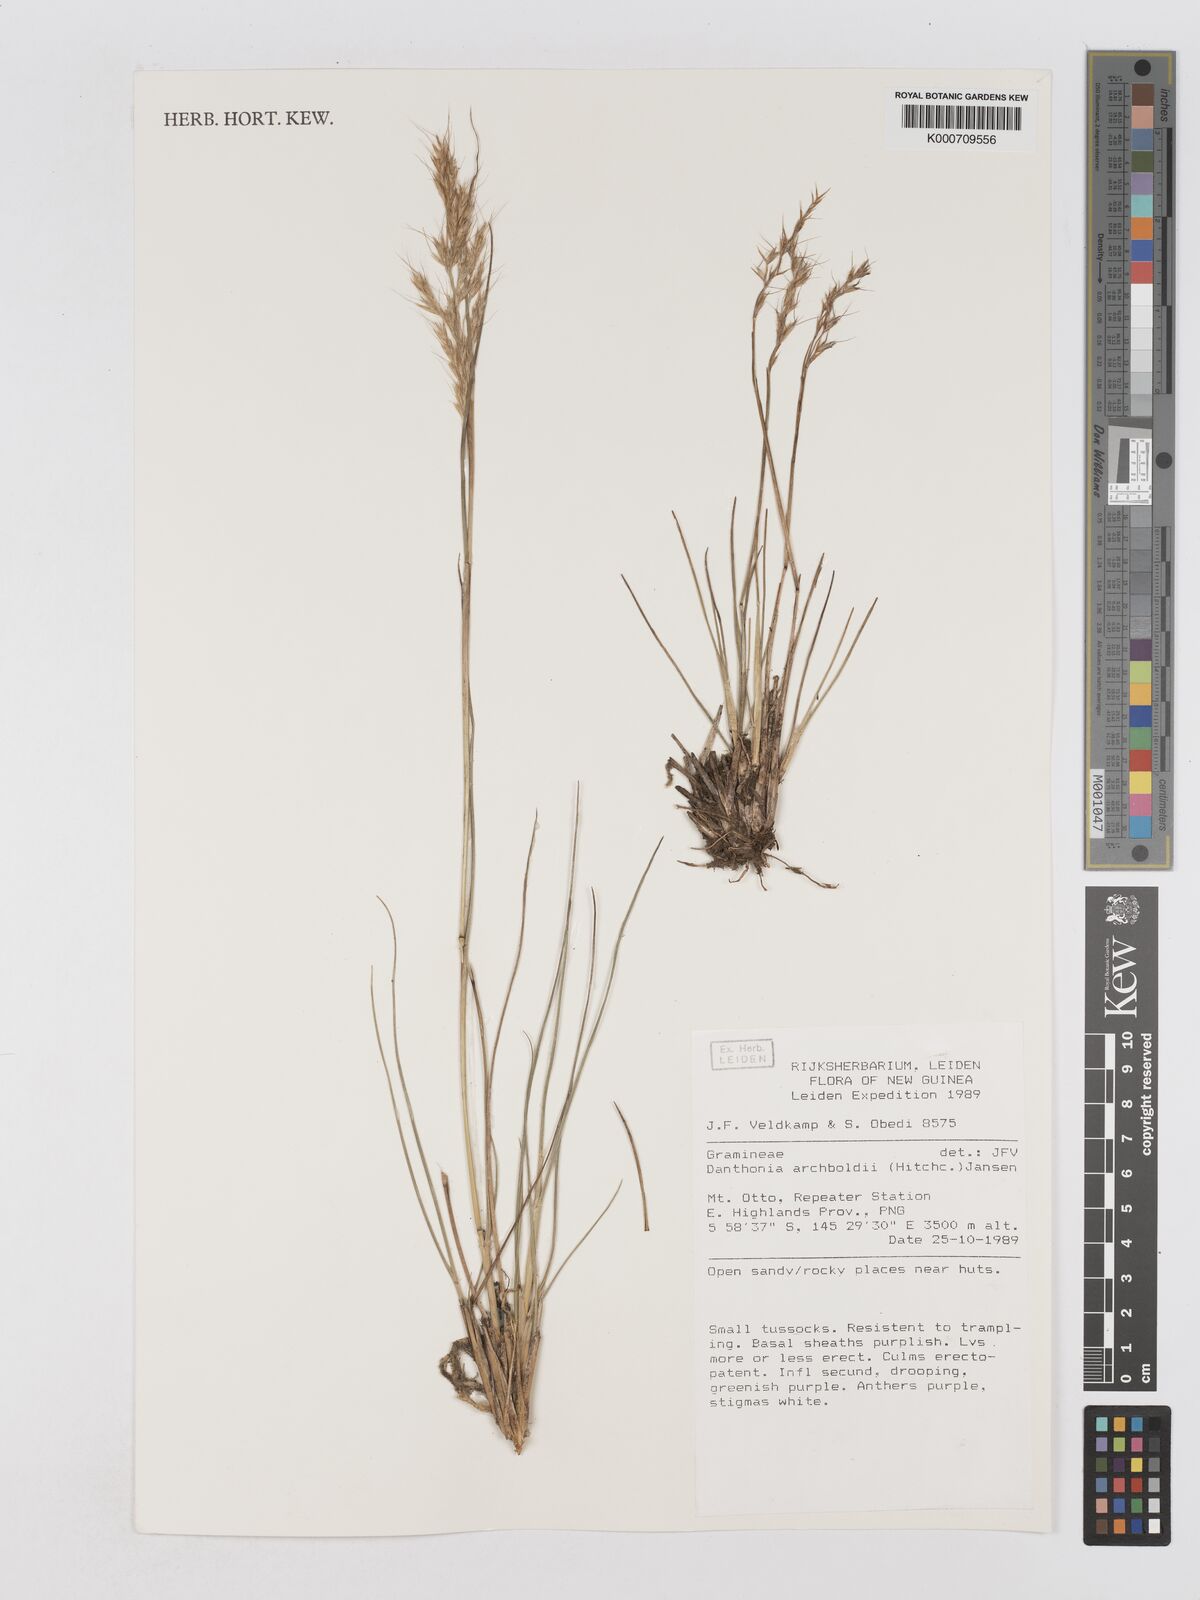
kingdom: Plantae
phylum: Tracheophyta
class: Liliopsida
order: Poales
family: Poaceae
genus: Chimaerochloa
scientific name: Chimaerochloa archboldii
